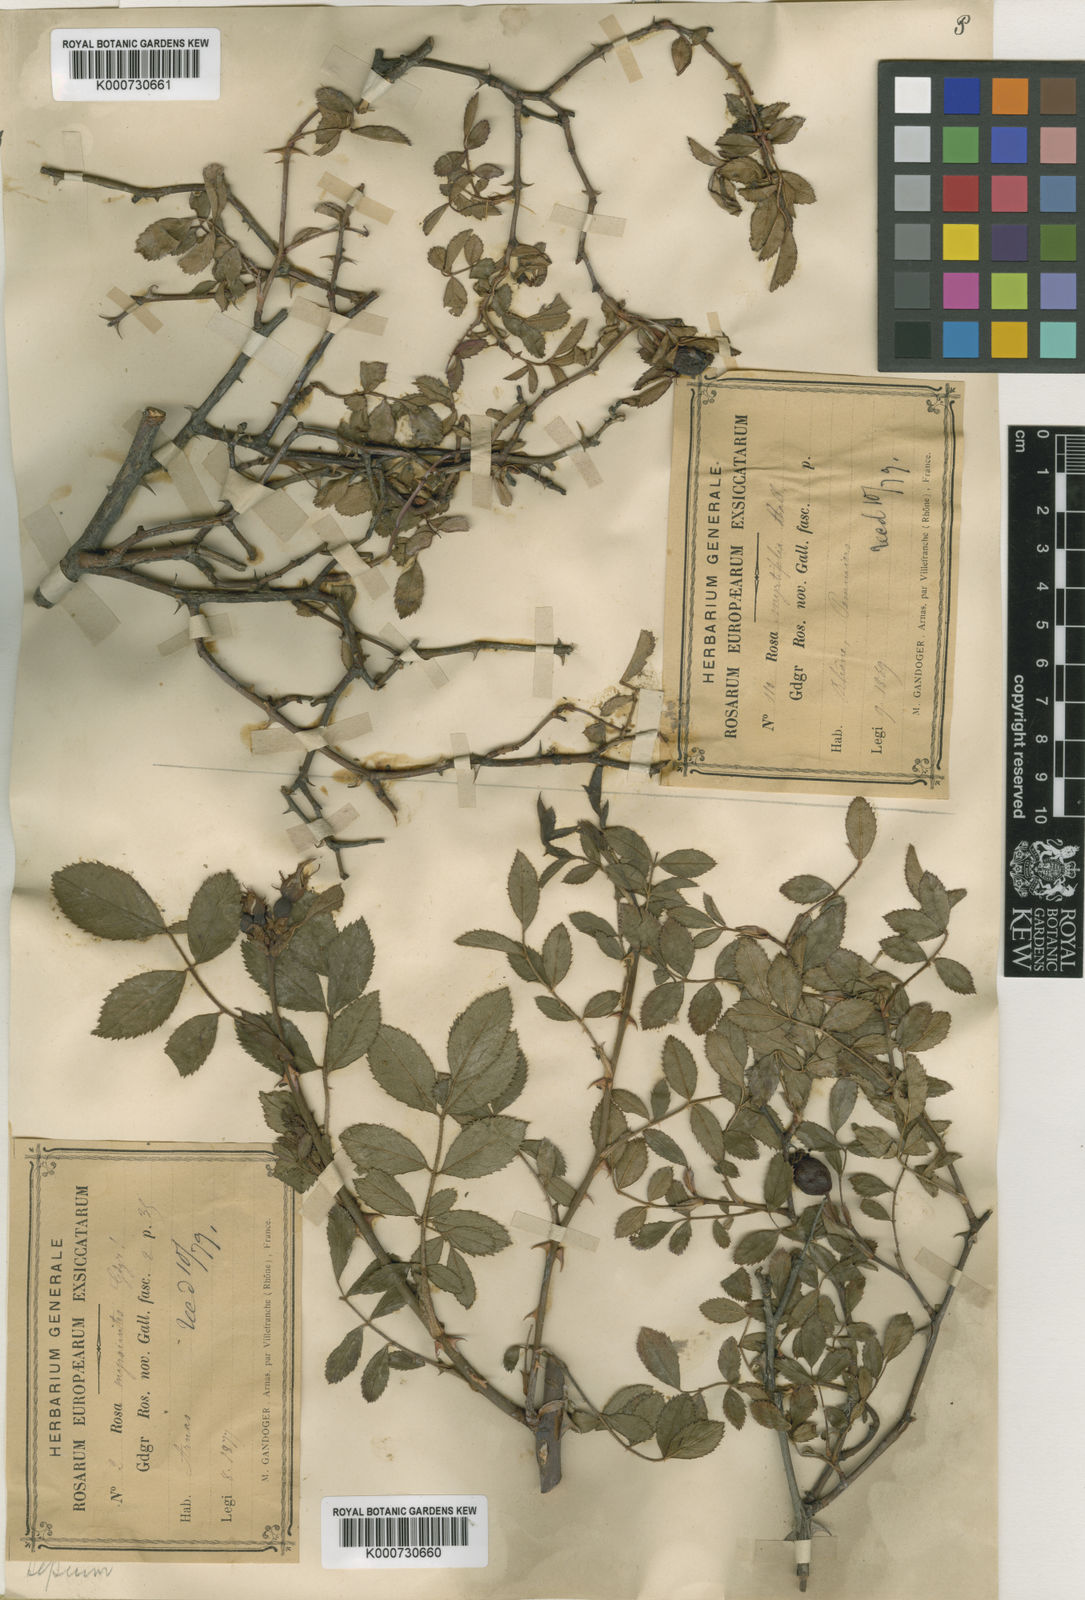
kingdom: Plantae
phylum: Tracheophyta
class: Magnoliopsida
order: Rosales
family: Rosaceae
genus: Rosa
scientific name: Rosa agrestis
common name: Fieldbriar
